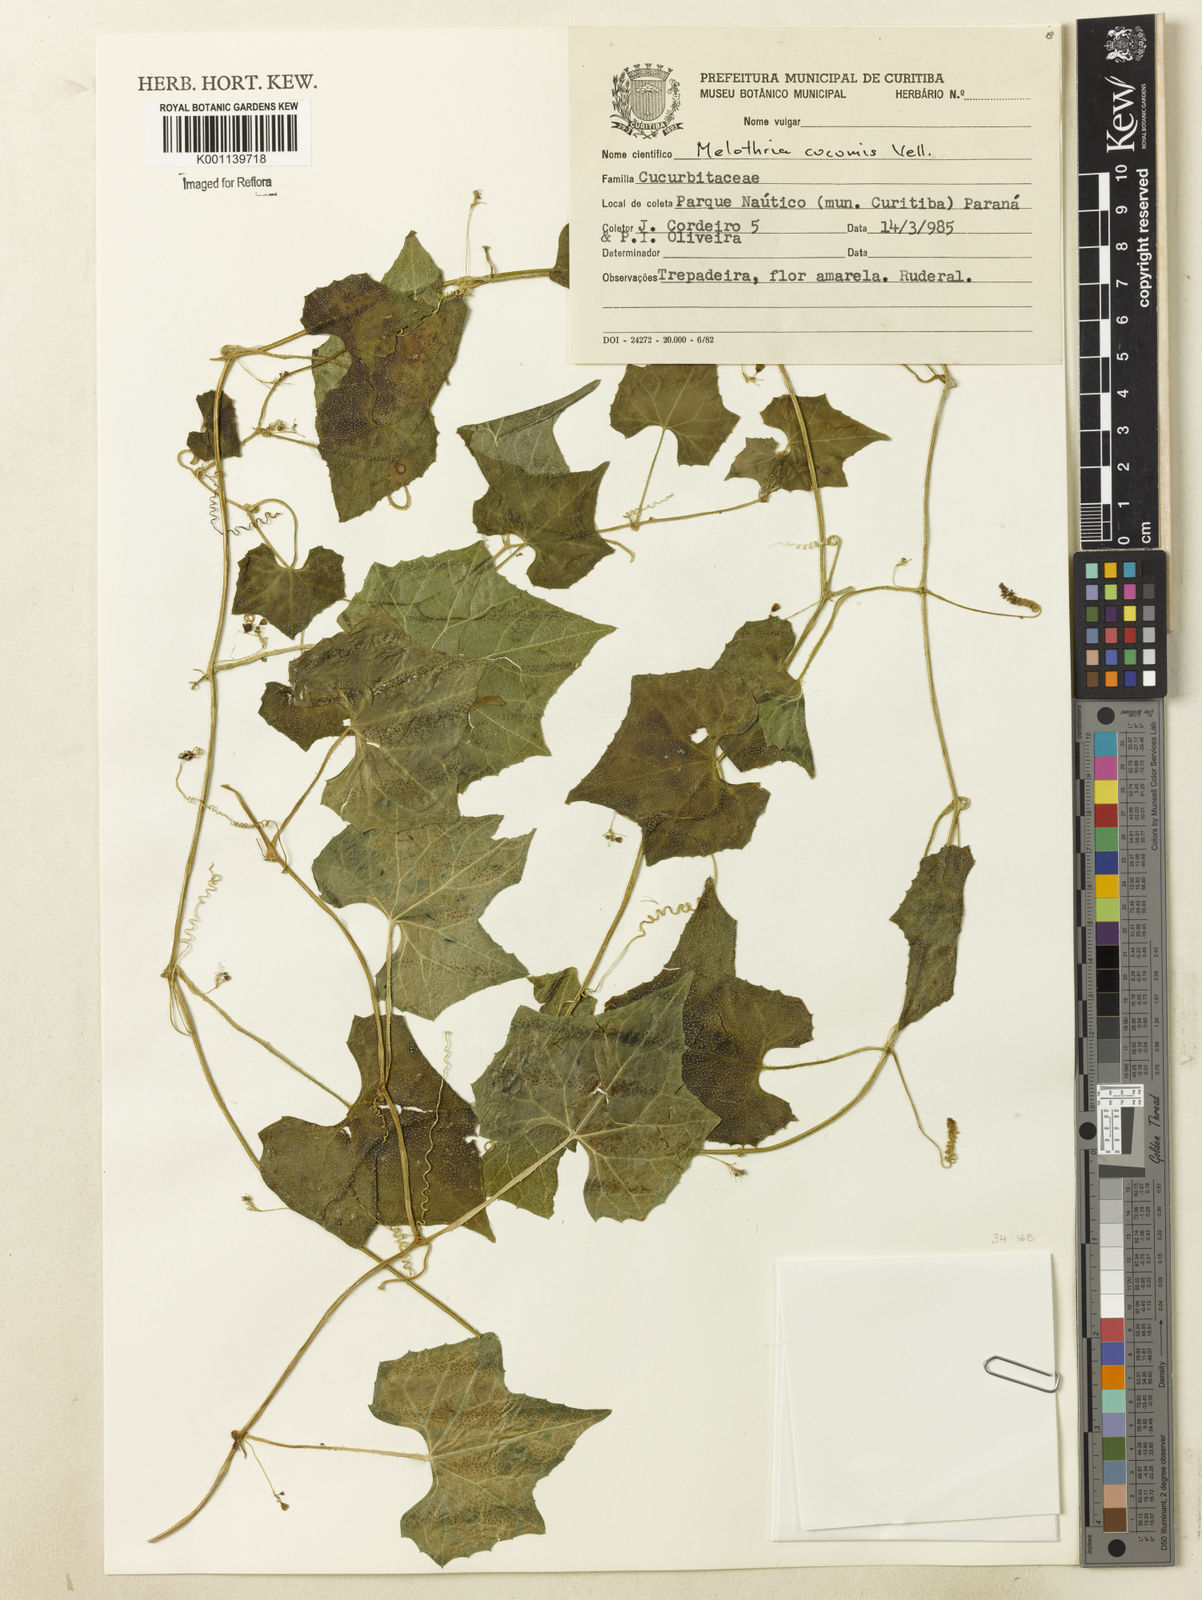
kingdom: Plantae
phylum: Tracheophyta
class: Magnoliopsida
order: Cucurbitales
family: Cucurbitaceae
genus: Melothria
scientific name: Melothria cucumis
